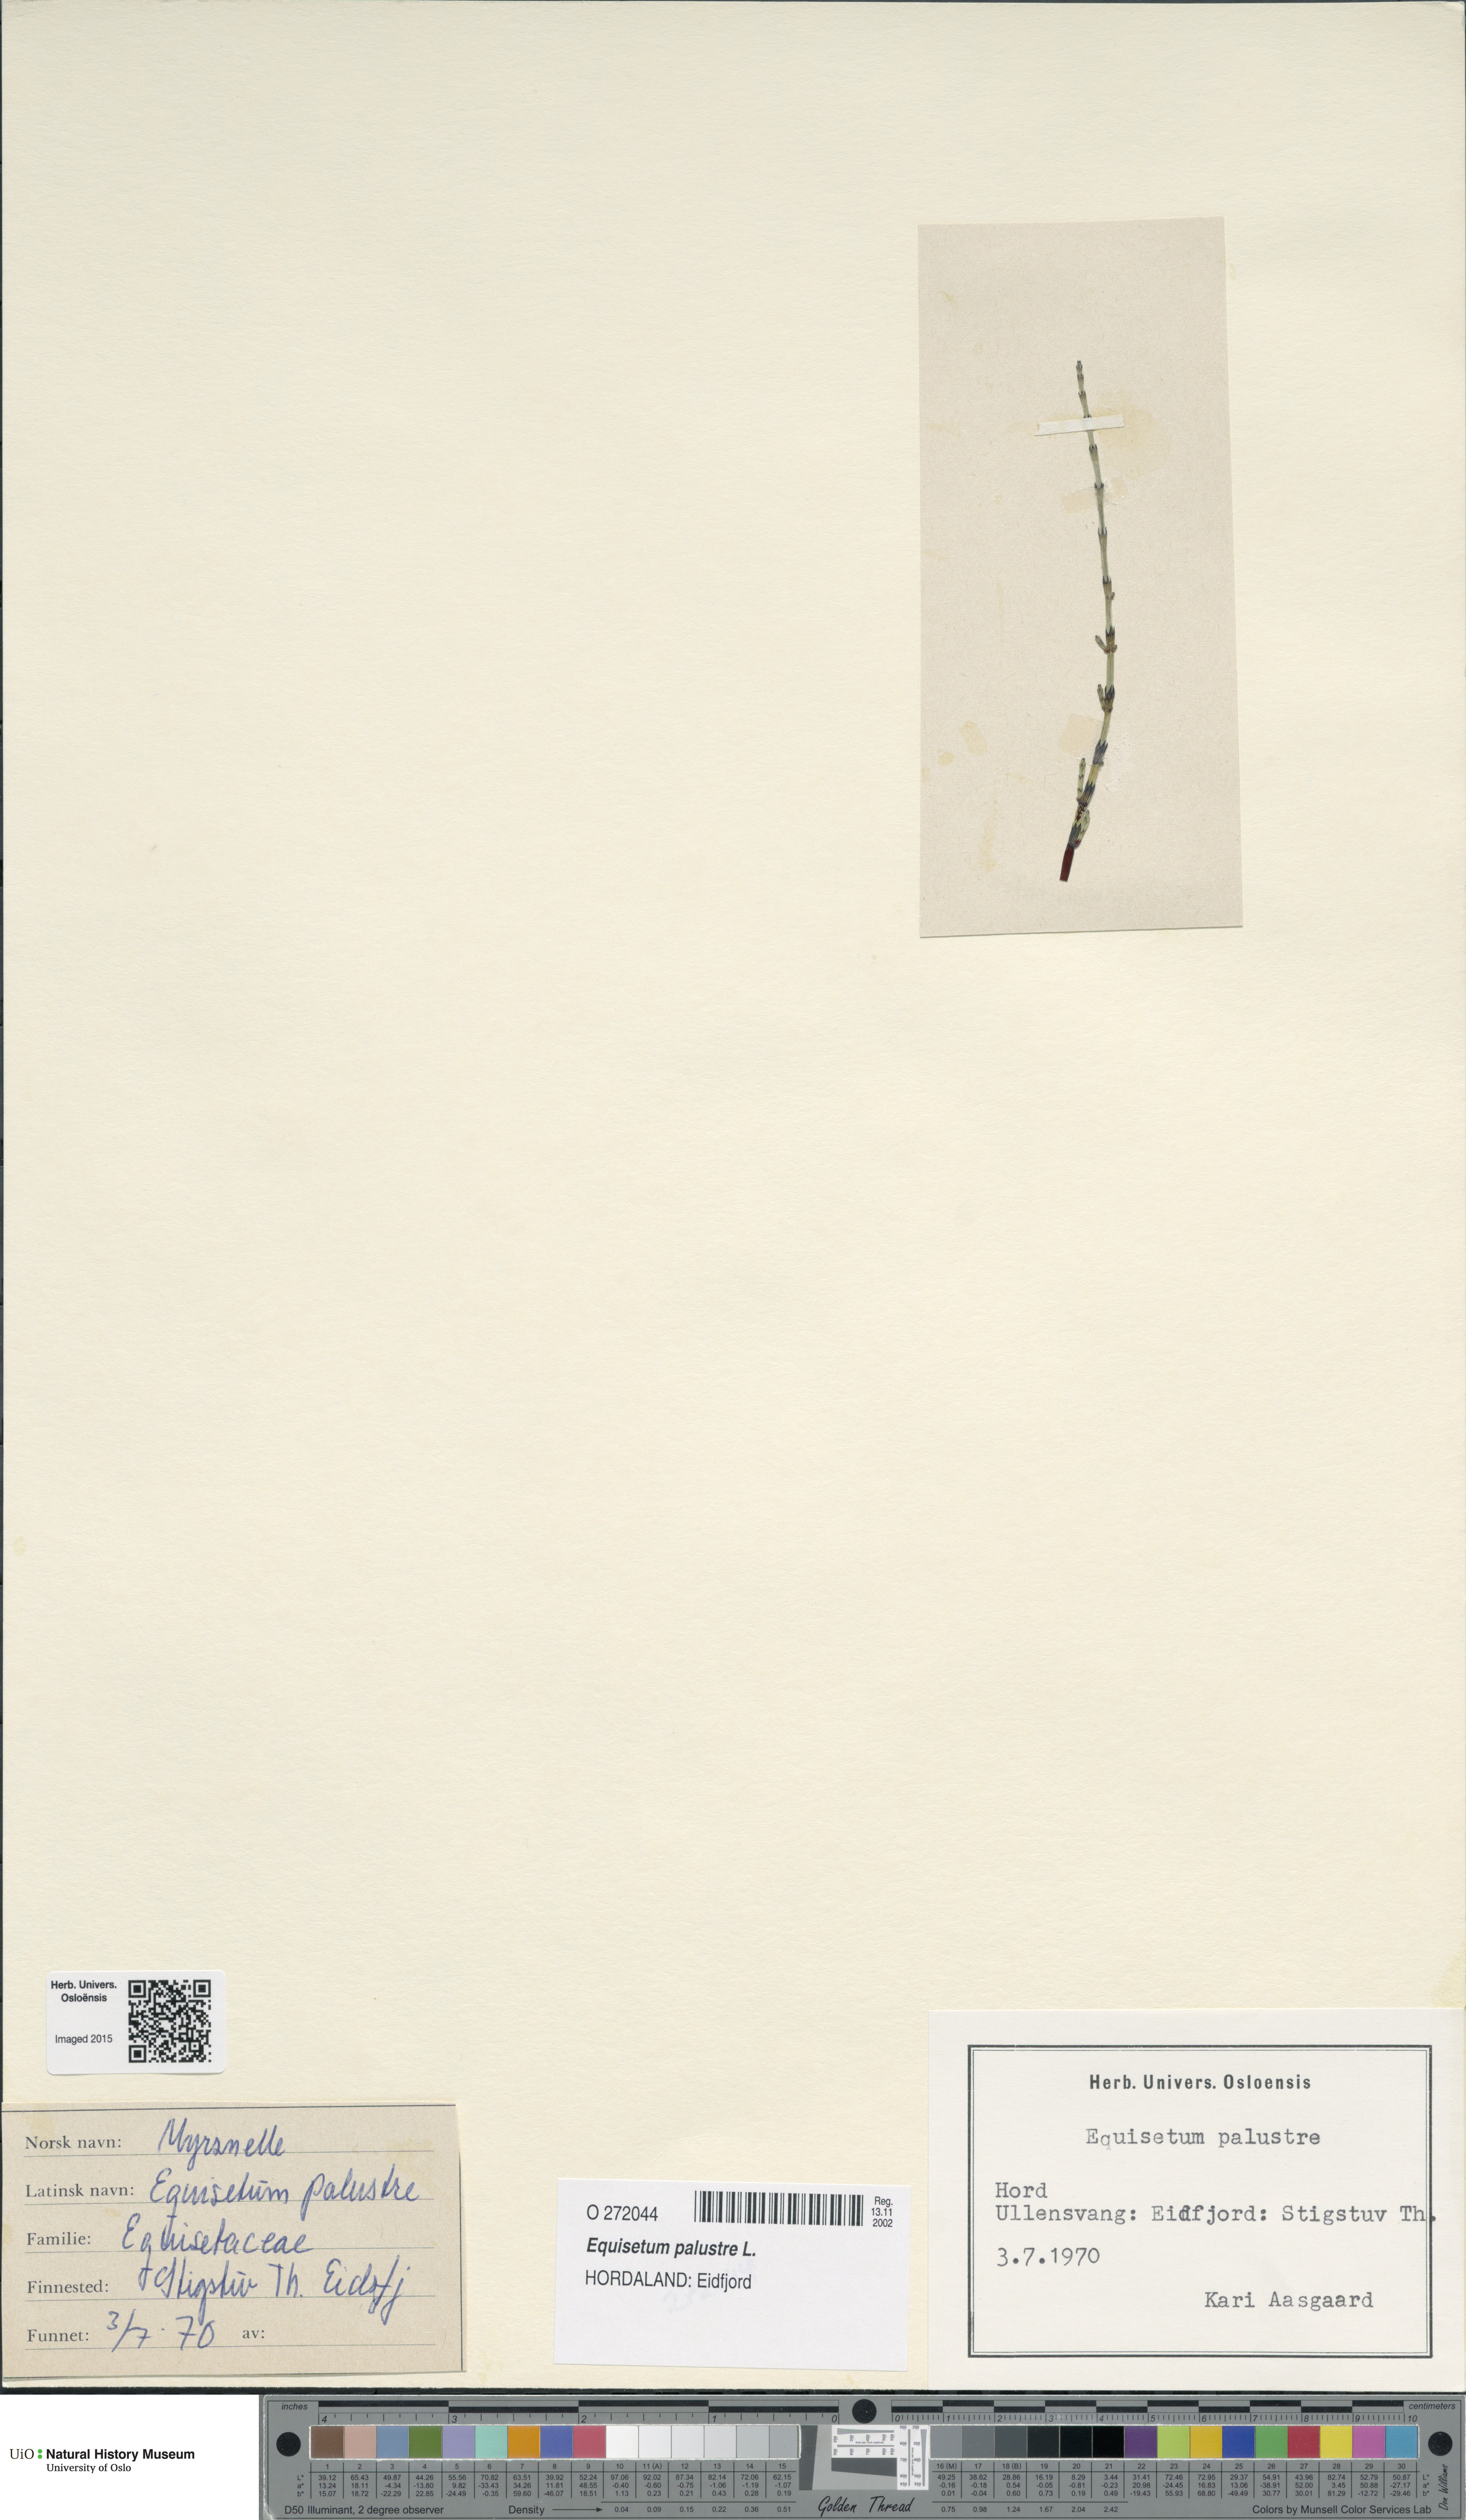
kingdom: Plantae
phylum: Tracheophyta
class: Polypodiopsida
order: Equisetales
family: Equisetaceae
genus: Equisetum
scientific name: Equisetum palustre
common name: Marsh horsetail
